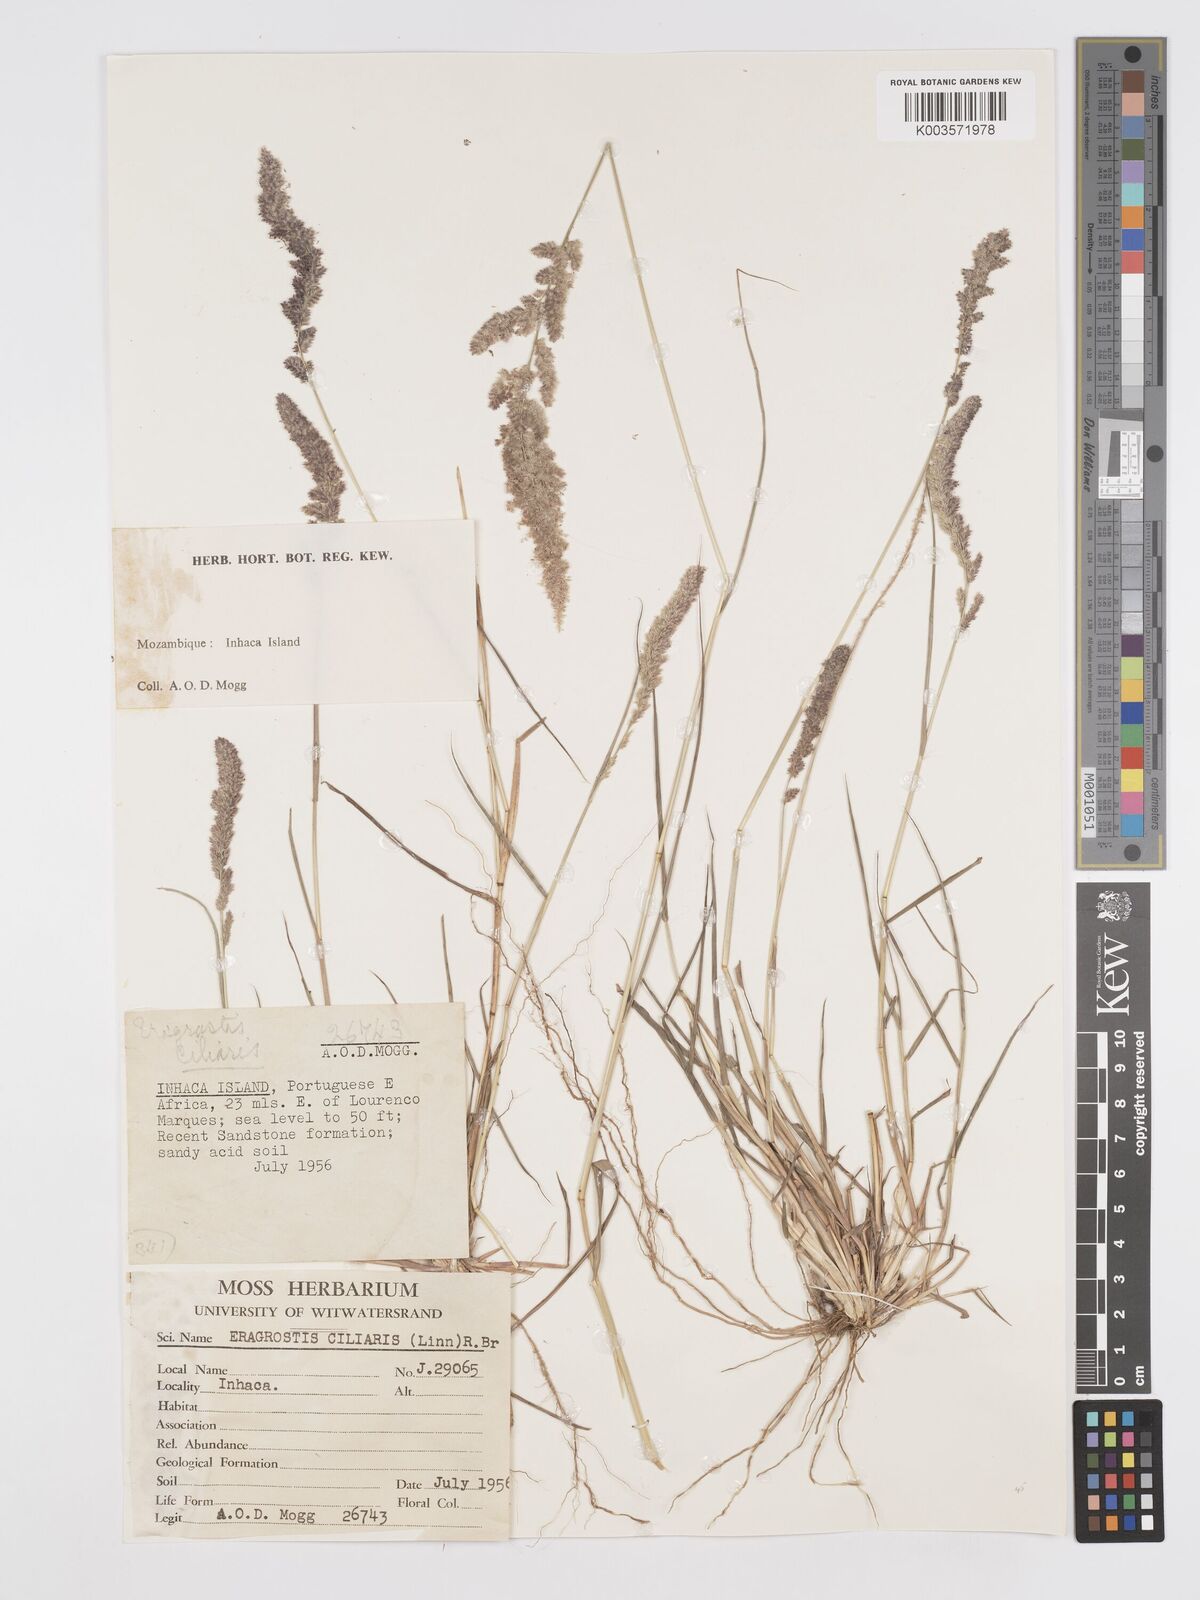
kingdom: Plantae
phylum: Tracheophyta
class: Liliopsida
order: Poales
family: Poaceae
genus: Eragrostis
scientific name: Eragrostis ciliaris
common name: Gophertail lovegrass
